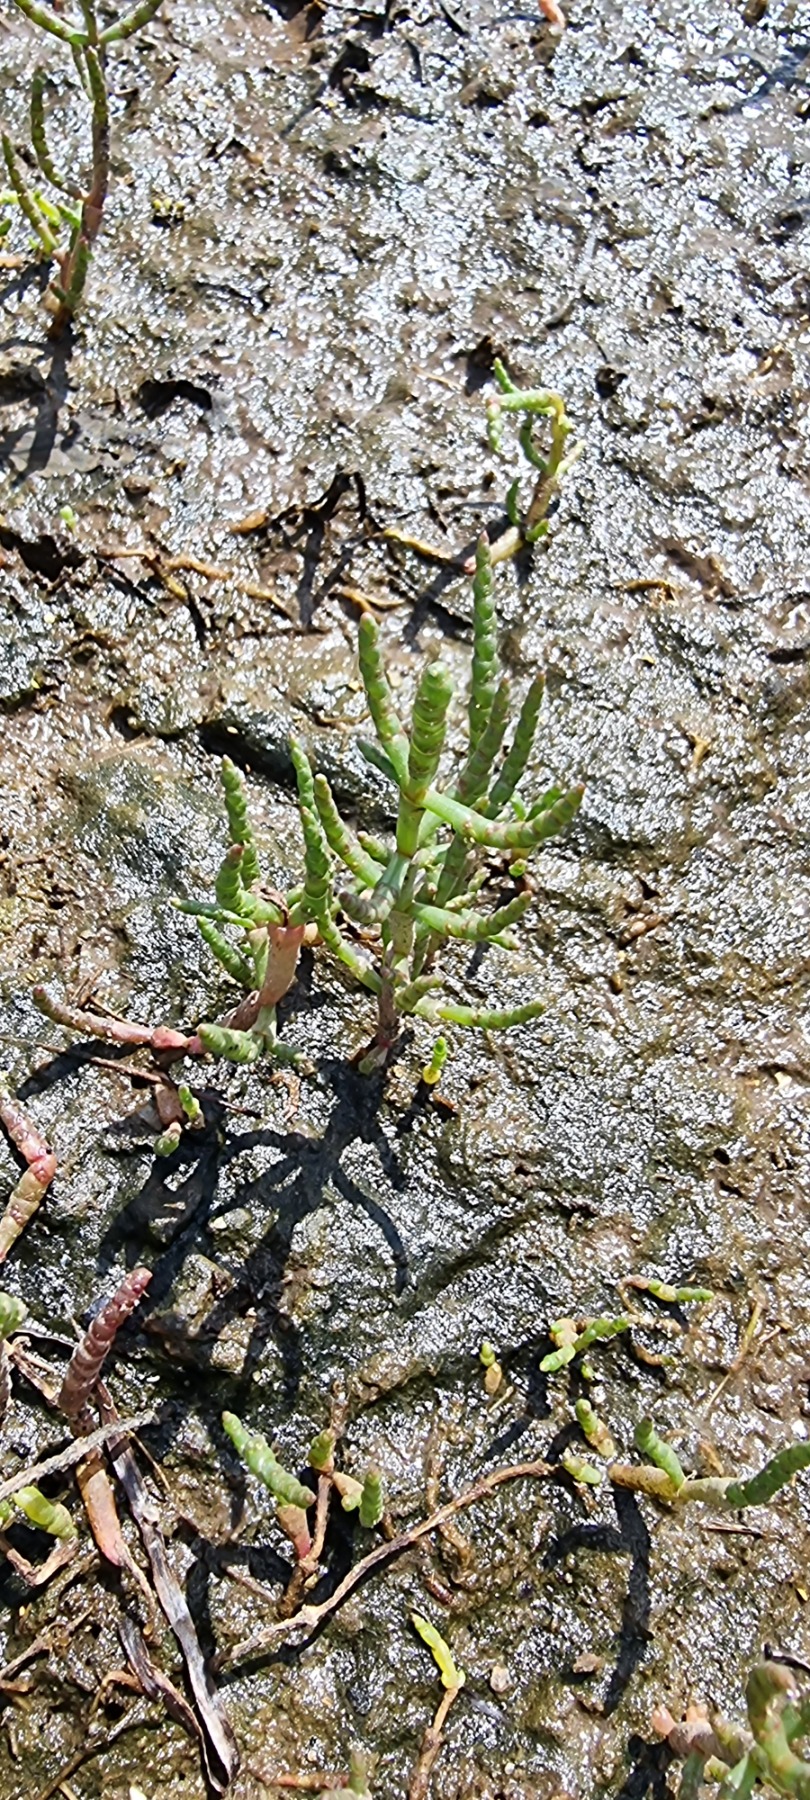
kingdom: Plantae
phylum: Tracheophyta
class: Magnoliopsida
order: Caryophyllales
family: Amaranthaceae
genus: Salicornia
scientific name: Salicornia europaea
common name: Almindelig salturt
